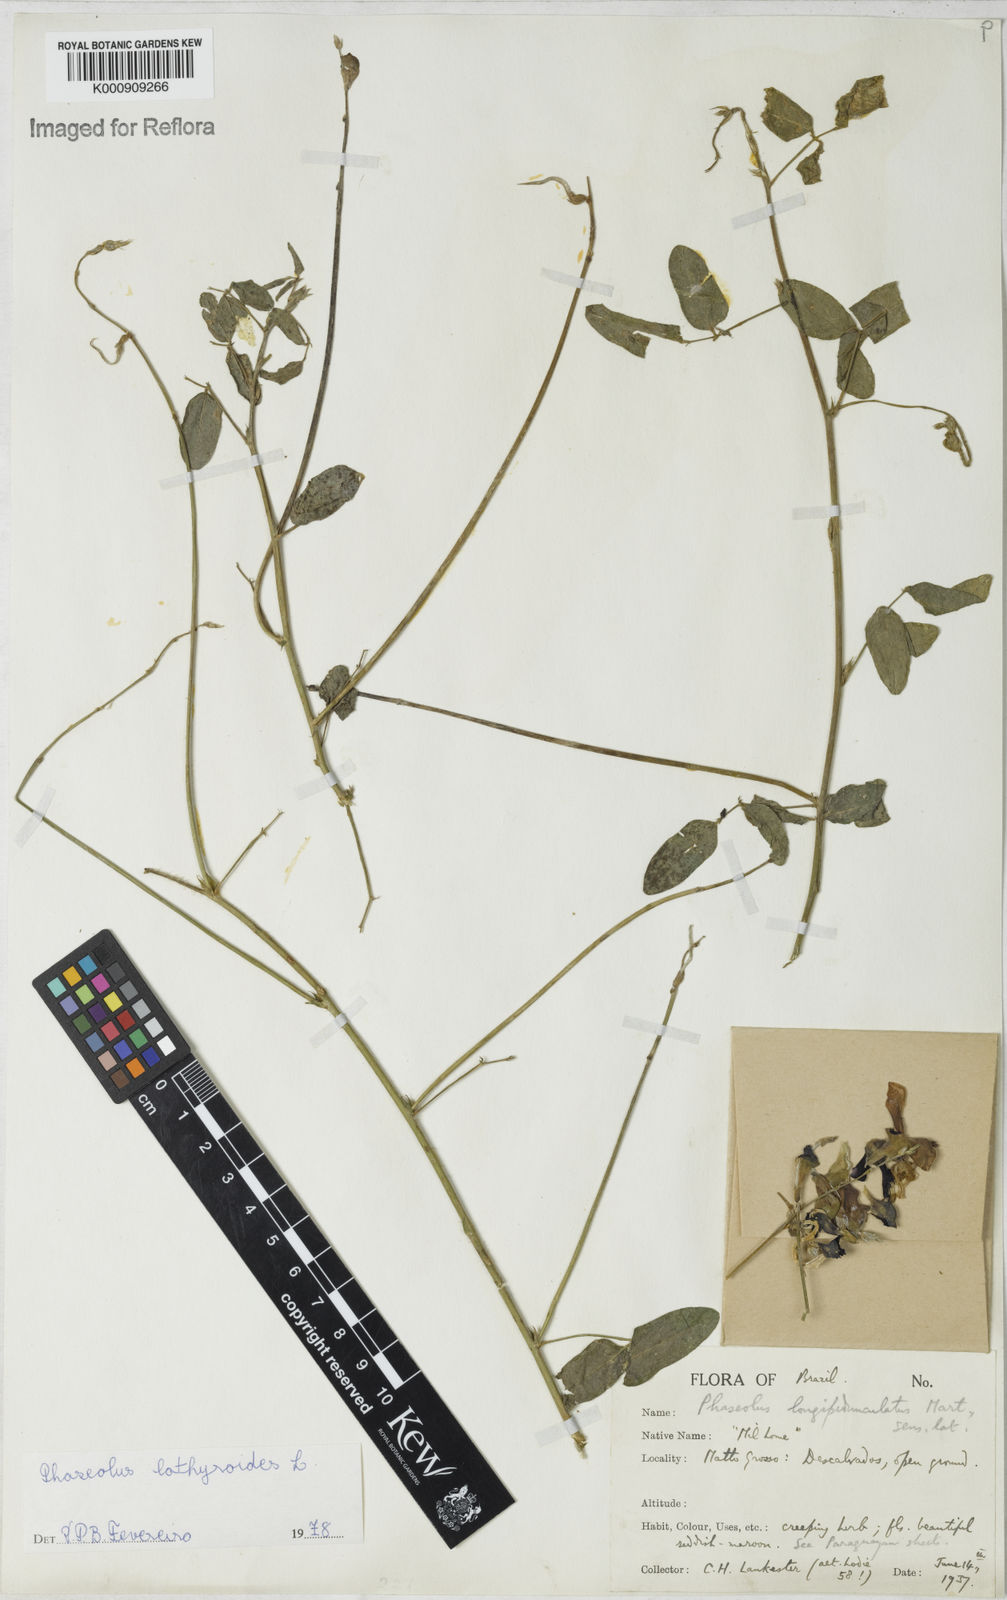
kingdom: Plantae
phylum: Tracheophyta
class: Magnoliopsida
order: Fabales
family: Fabaceae
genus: Macroptilium
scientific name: Macroptilium lathyroides
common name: Wild bushbean
